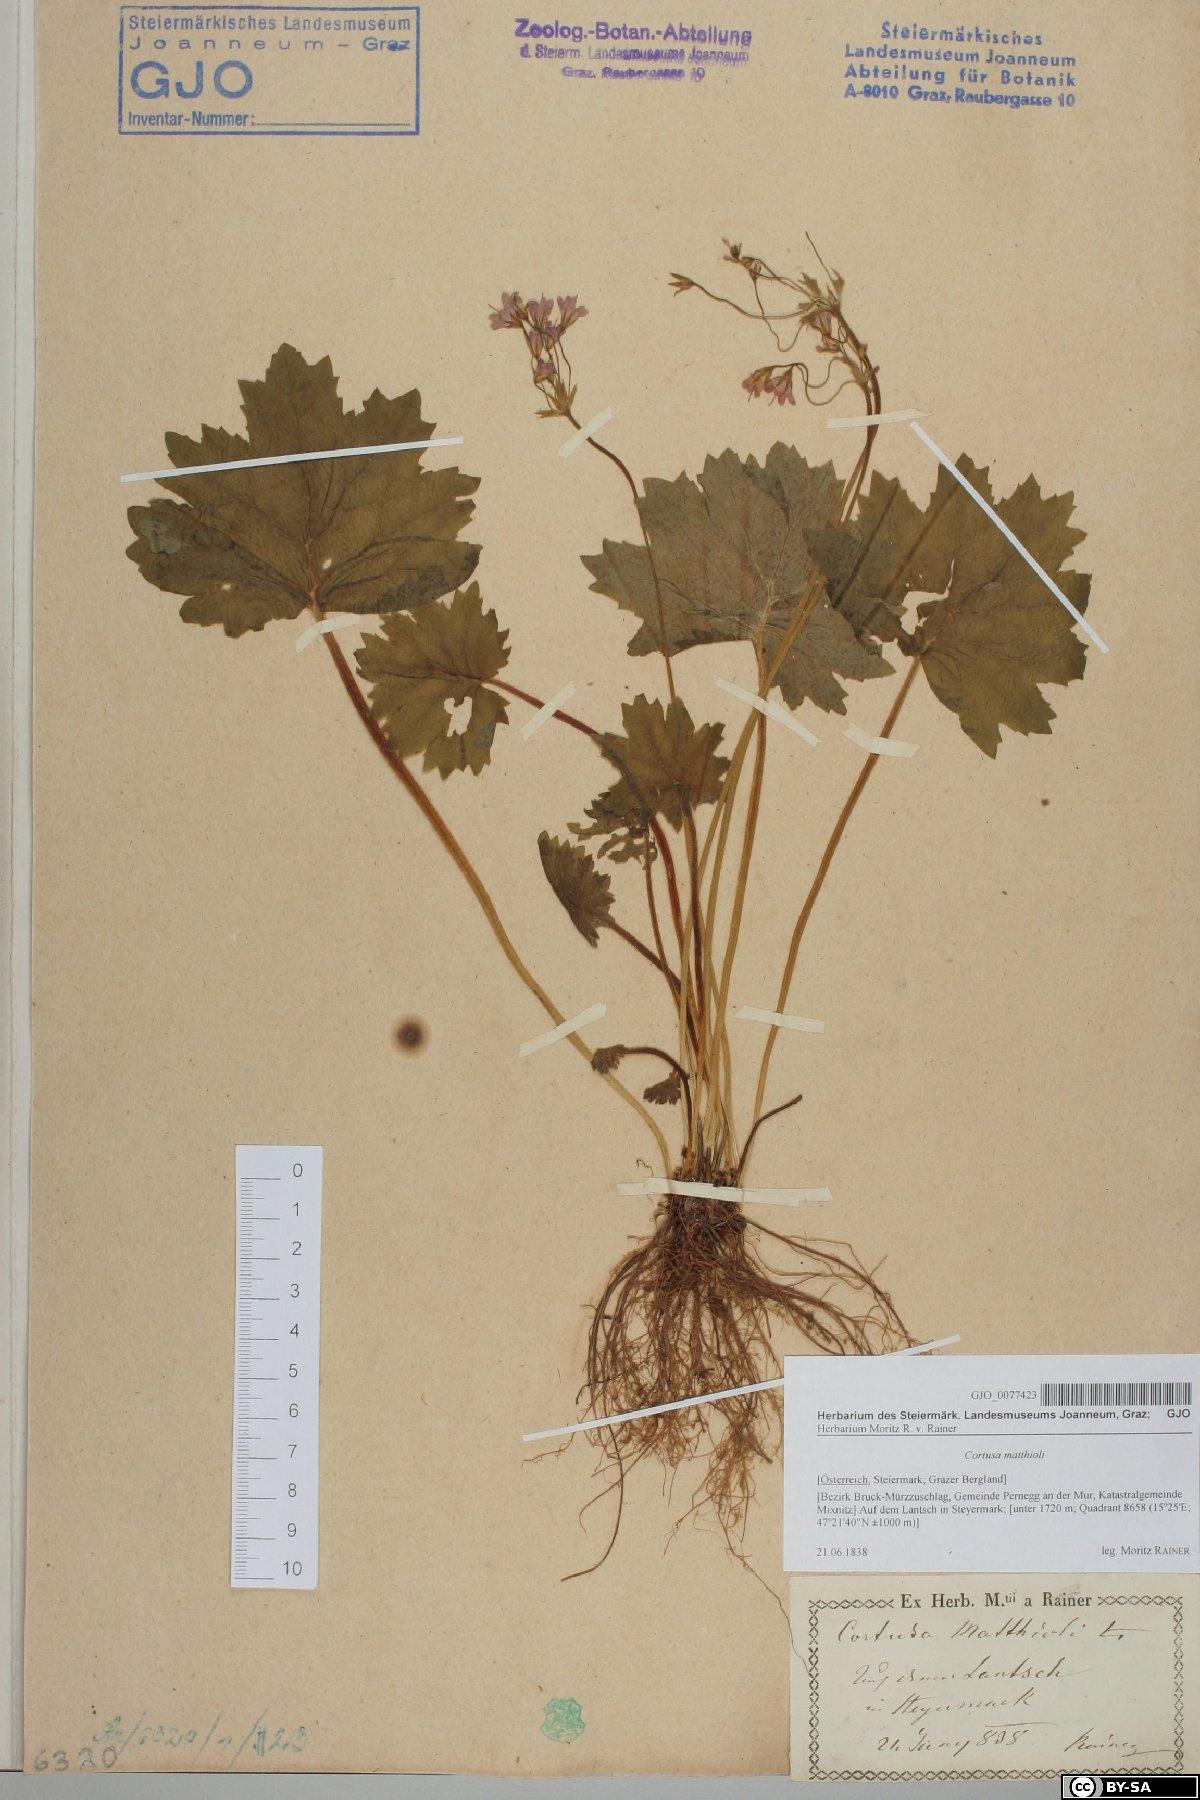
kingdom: Plantae
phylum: Tracheophyta
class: Magnoliopsida
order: Ericales
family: Primulaceae
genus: Primula
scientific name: Primula matthioli
